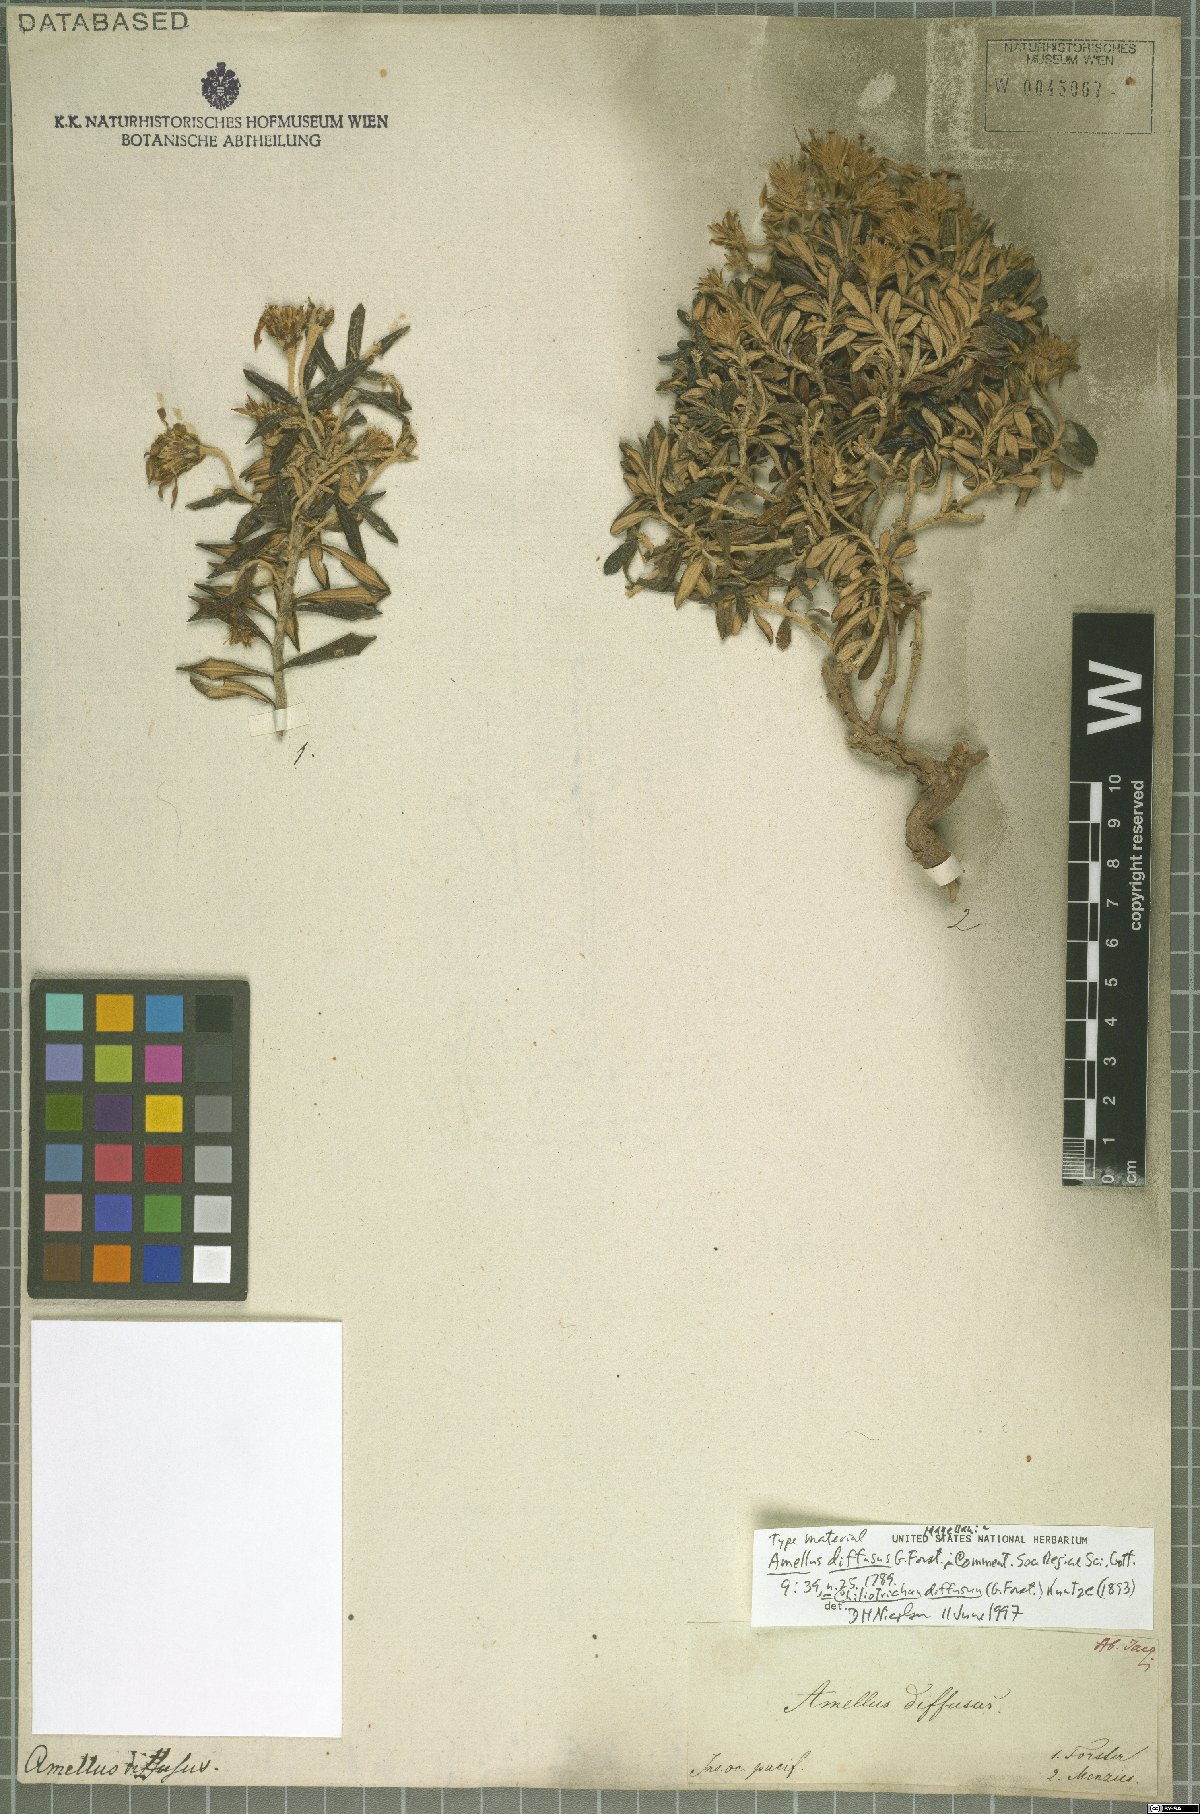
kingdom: Plantae
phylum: Tracheophyta
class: Magnoliopsida
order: Asterales
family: Asteraceae
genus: Chiliotrichum
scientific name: Chiliotrichum diffusum
